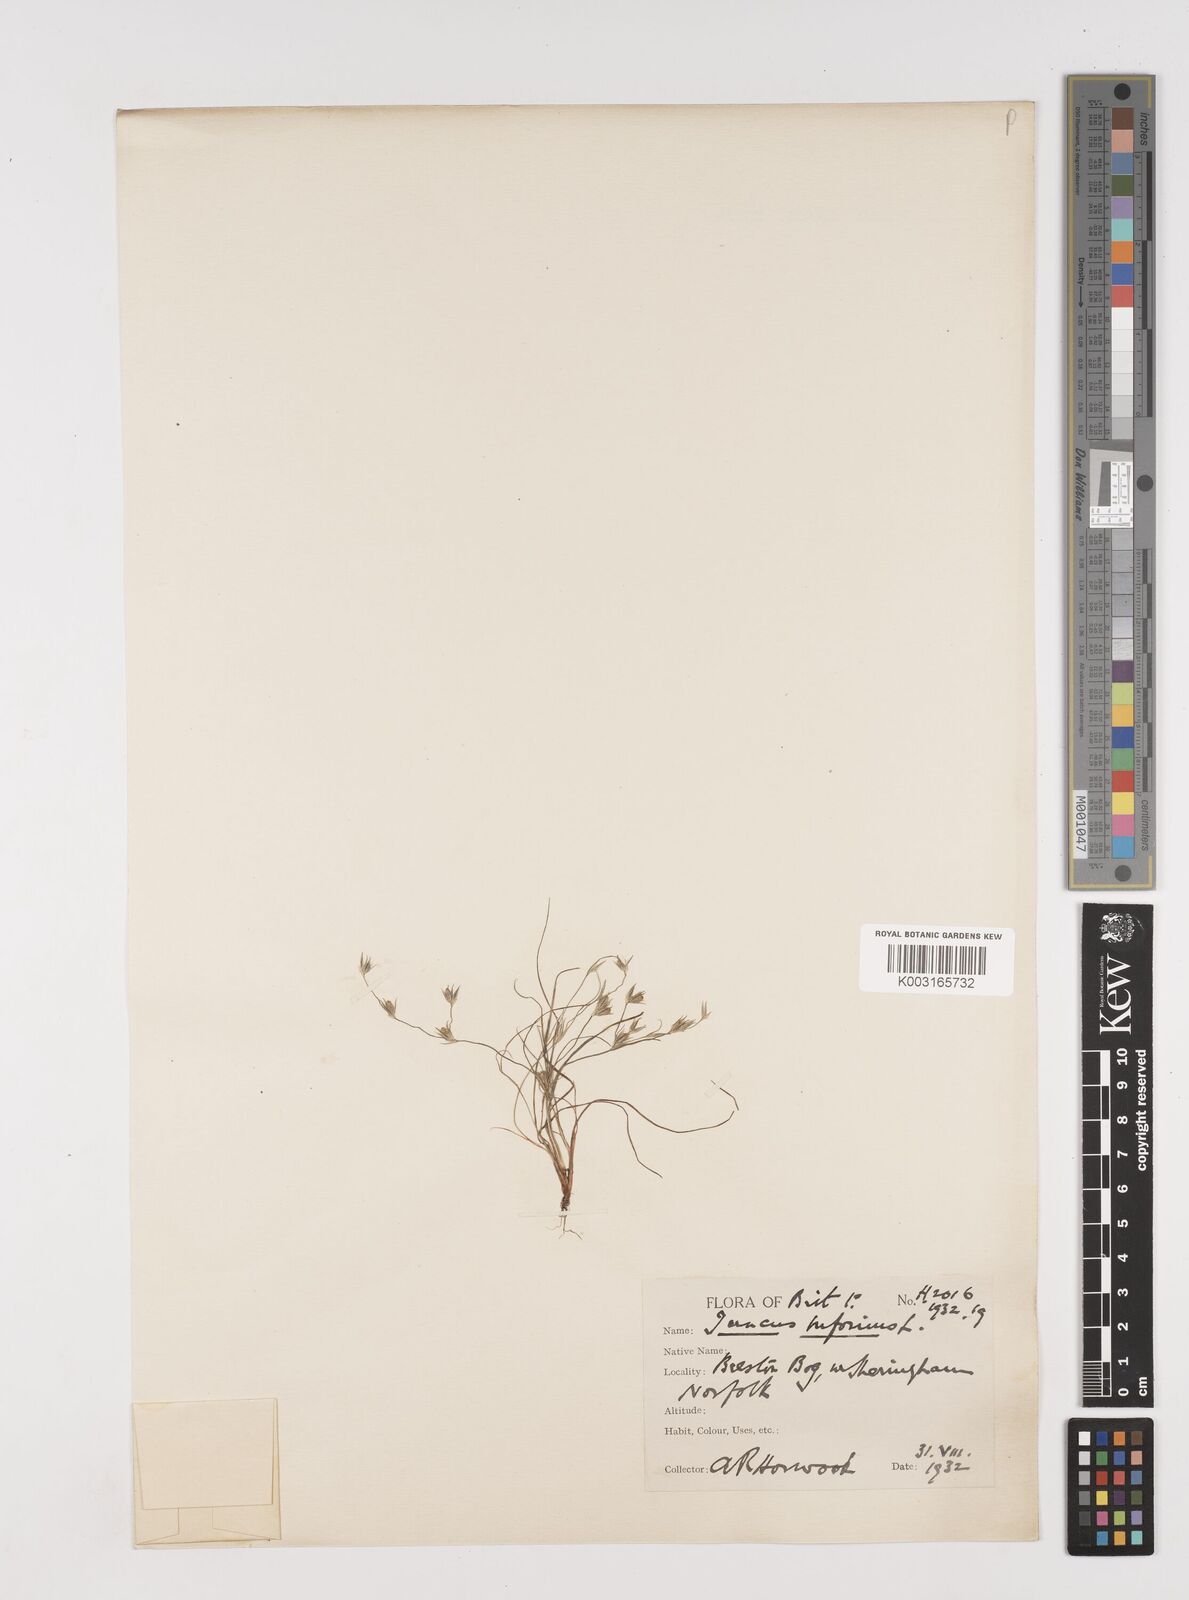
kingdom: Plantae
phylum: Tracheophyta
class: Liliopsida
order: Poales
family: Juncaceae
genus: Juncus
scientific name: Juncus bufonius
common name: Toad rush
